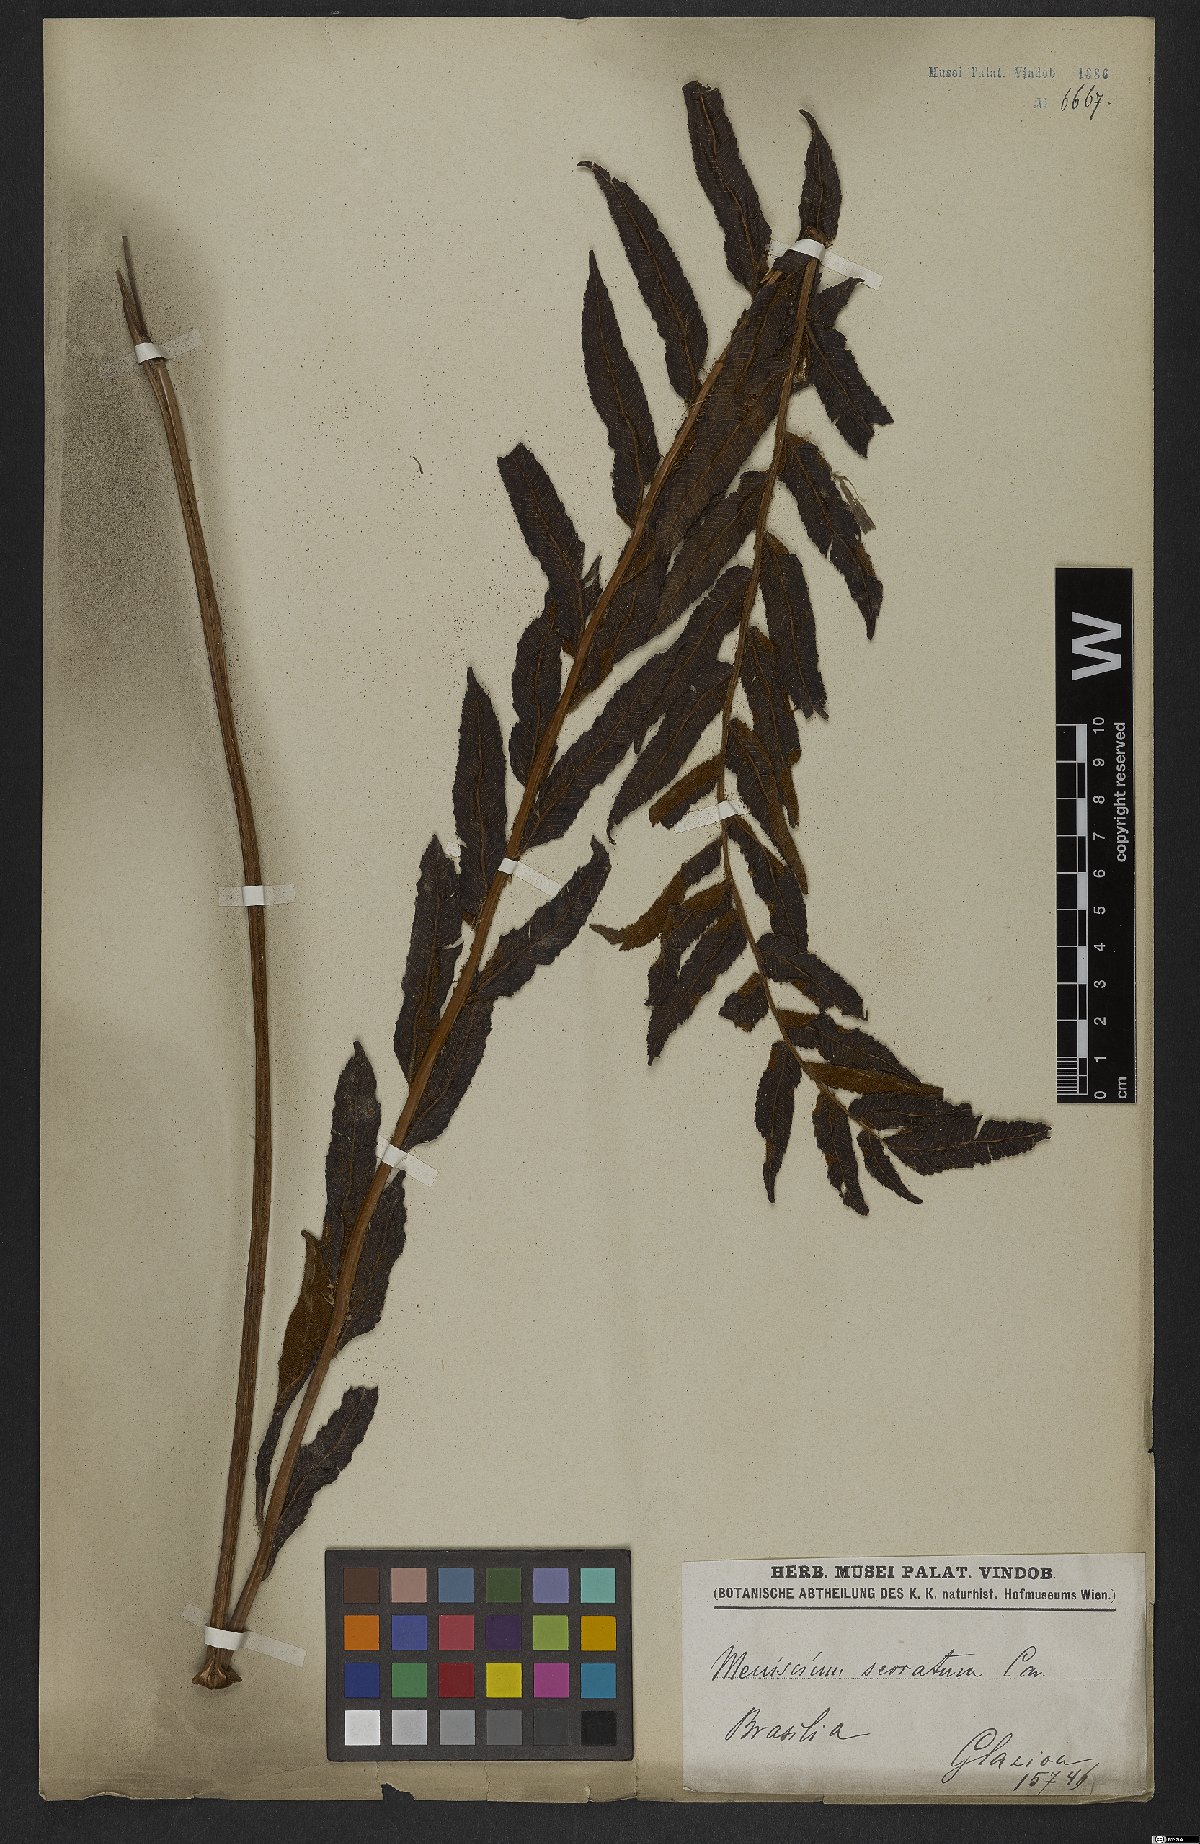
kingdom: Plantae
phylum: Tracheophyta
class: Polypodiopsida
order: Polypodiales
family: Thelypteridaceae
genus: Meniscium
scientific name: Meniscium serratum
